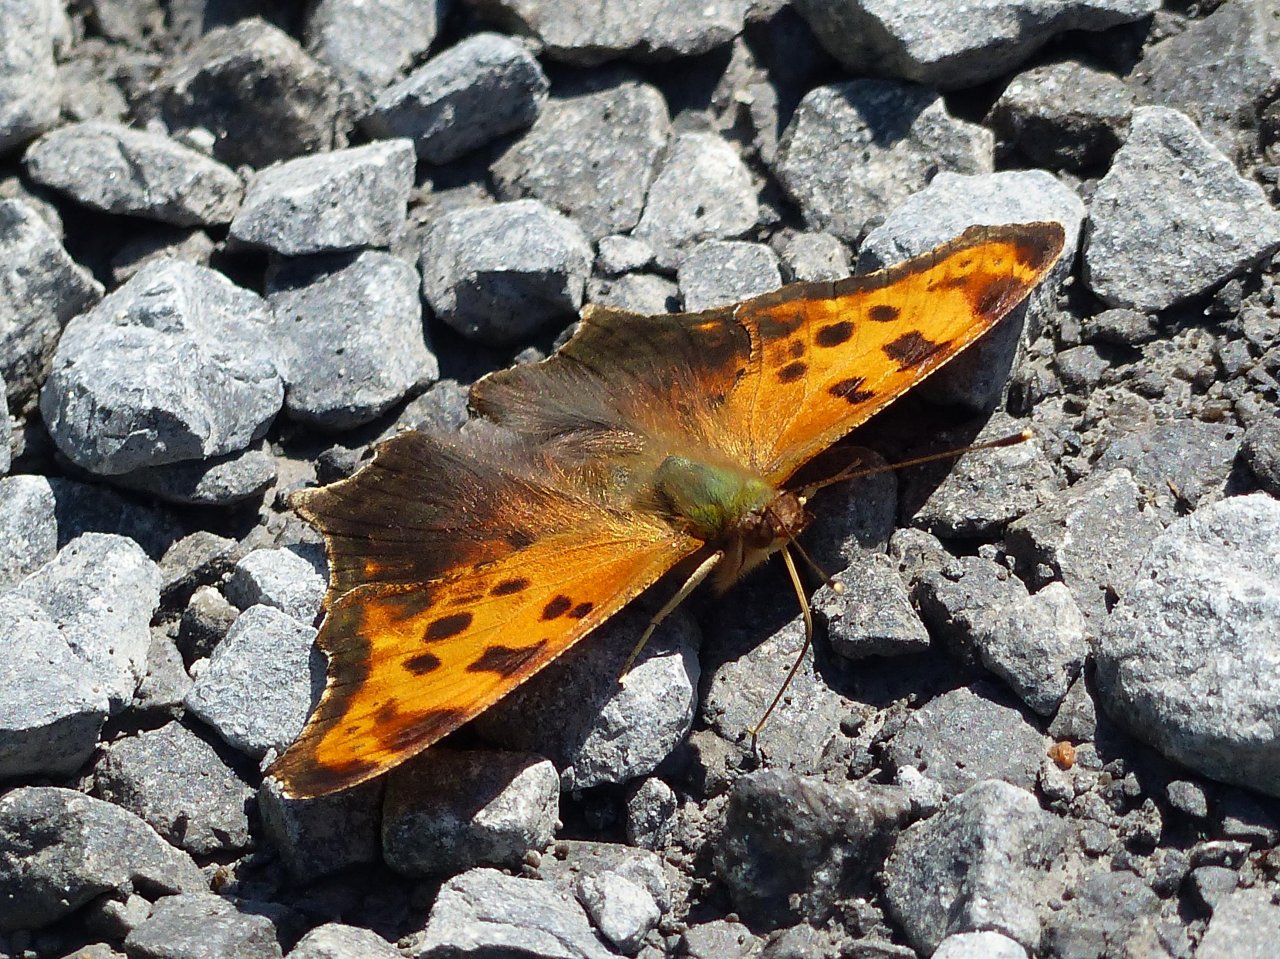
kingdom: Animalia
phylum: Arthropoda
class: Insecta
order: Lepidoptera
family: Nymphalidae
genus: Polygonia
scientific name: Polygonia comma
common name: Eastern Comma
